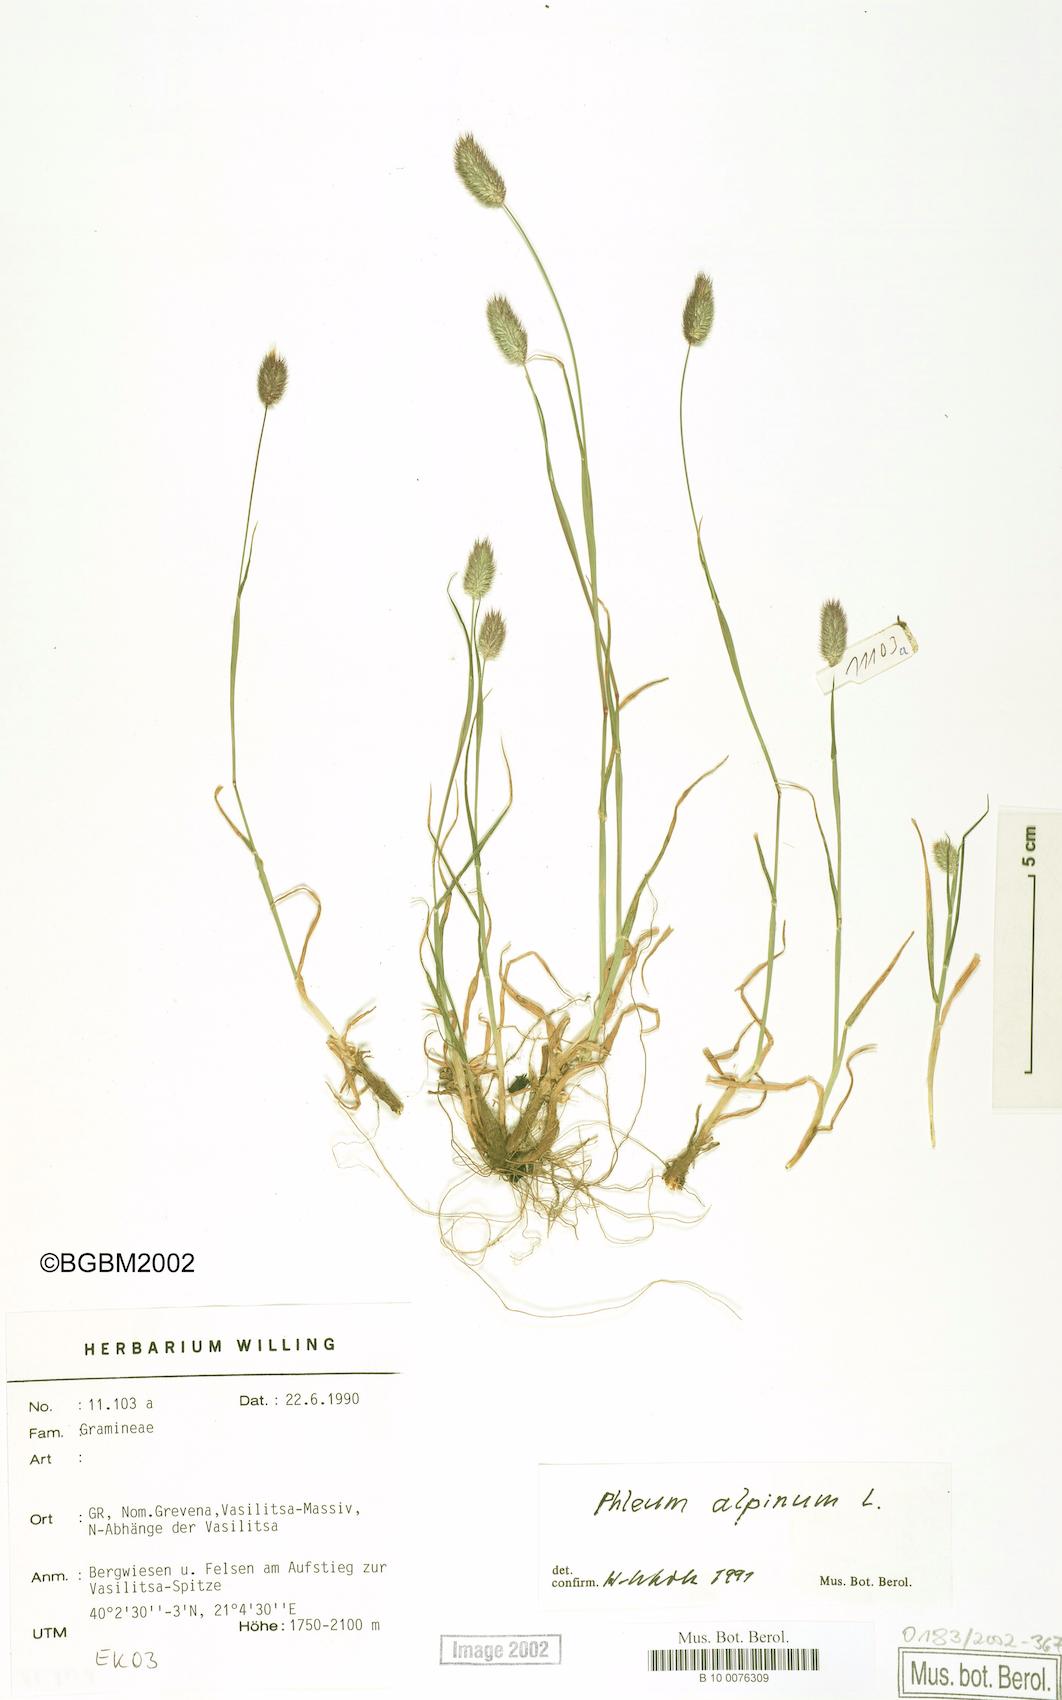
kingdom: Plantae
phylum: Tracheophyta
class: Liliopsida
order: Poales
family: Poaceae
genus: Phleum
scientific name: Phleum alpinum
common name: Alpine cat's-tail
